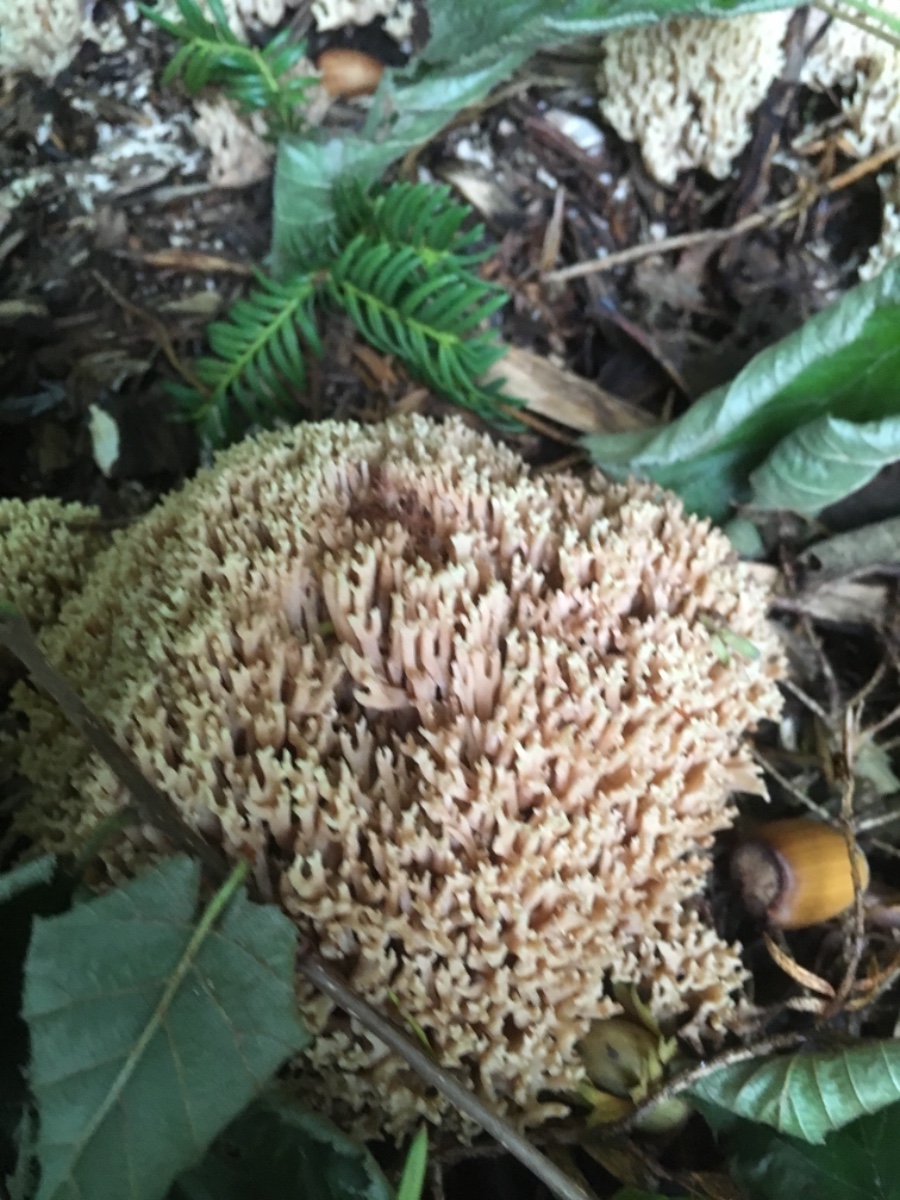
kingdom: Fungi
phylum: Basidiomycota
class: Agaricomycetes
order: Gomphales
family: Gomphaceae
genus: Ramaria
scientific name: Ramaria stricta
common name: rank koralsvamp
